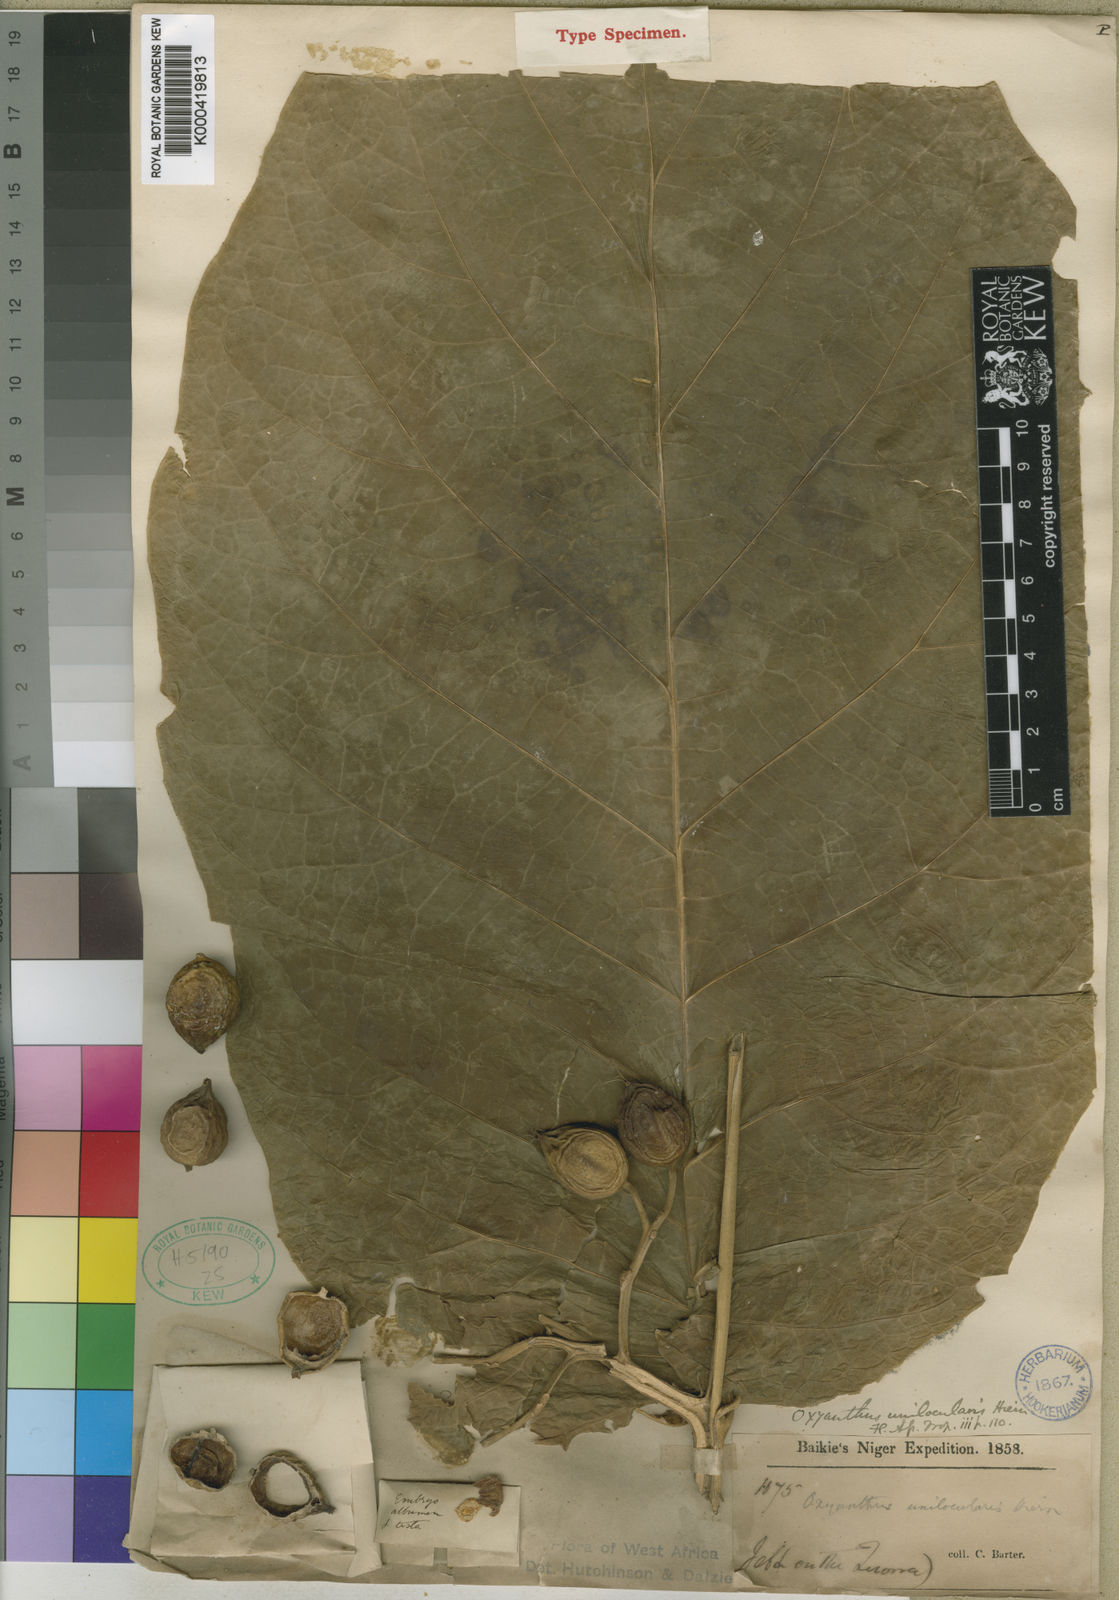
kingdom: Plantae
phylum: Tracheophyta
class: Magnoliopsida
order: Gentianales
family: Rubiaceae
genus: Oxyanthus
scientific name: Oxyanthus unilocularis
